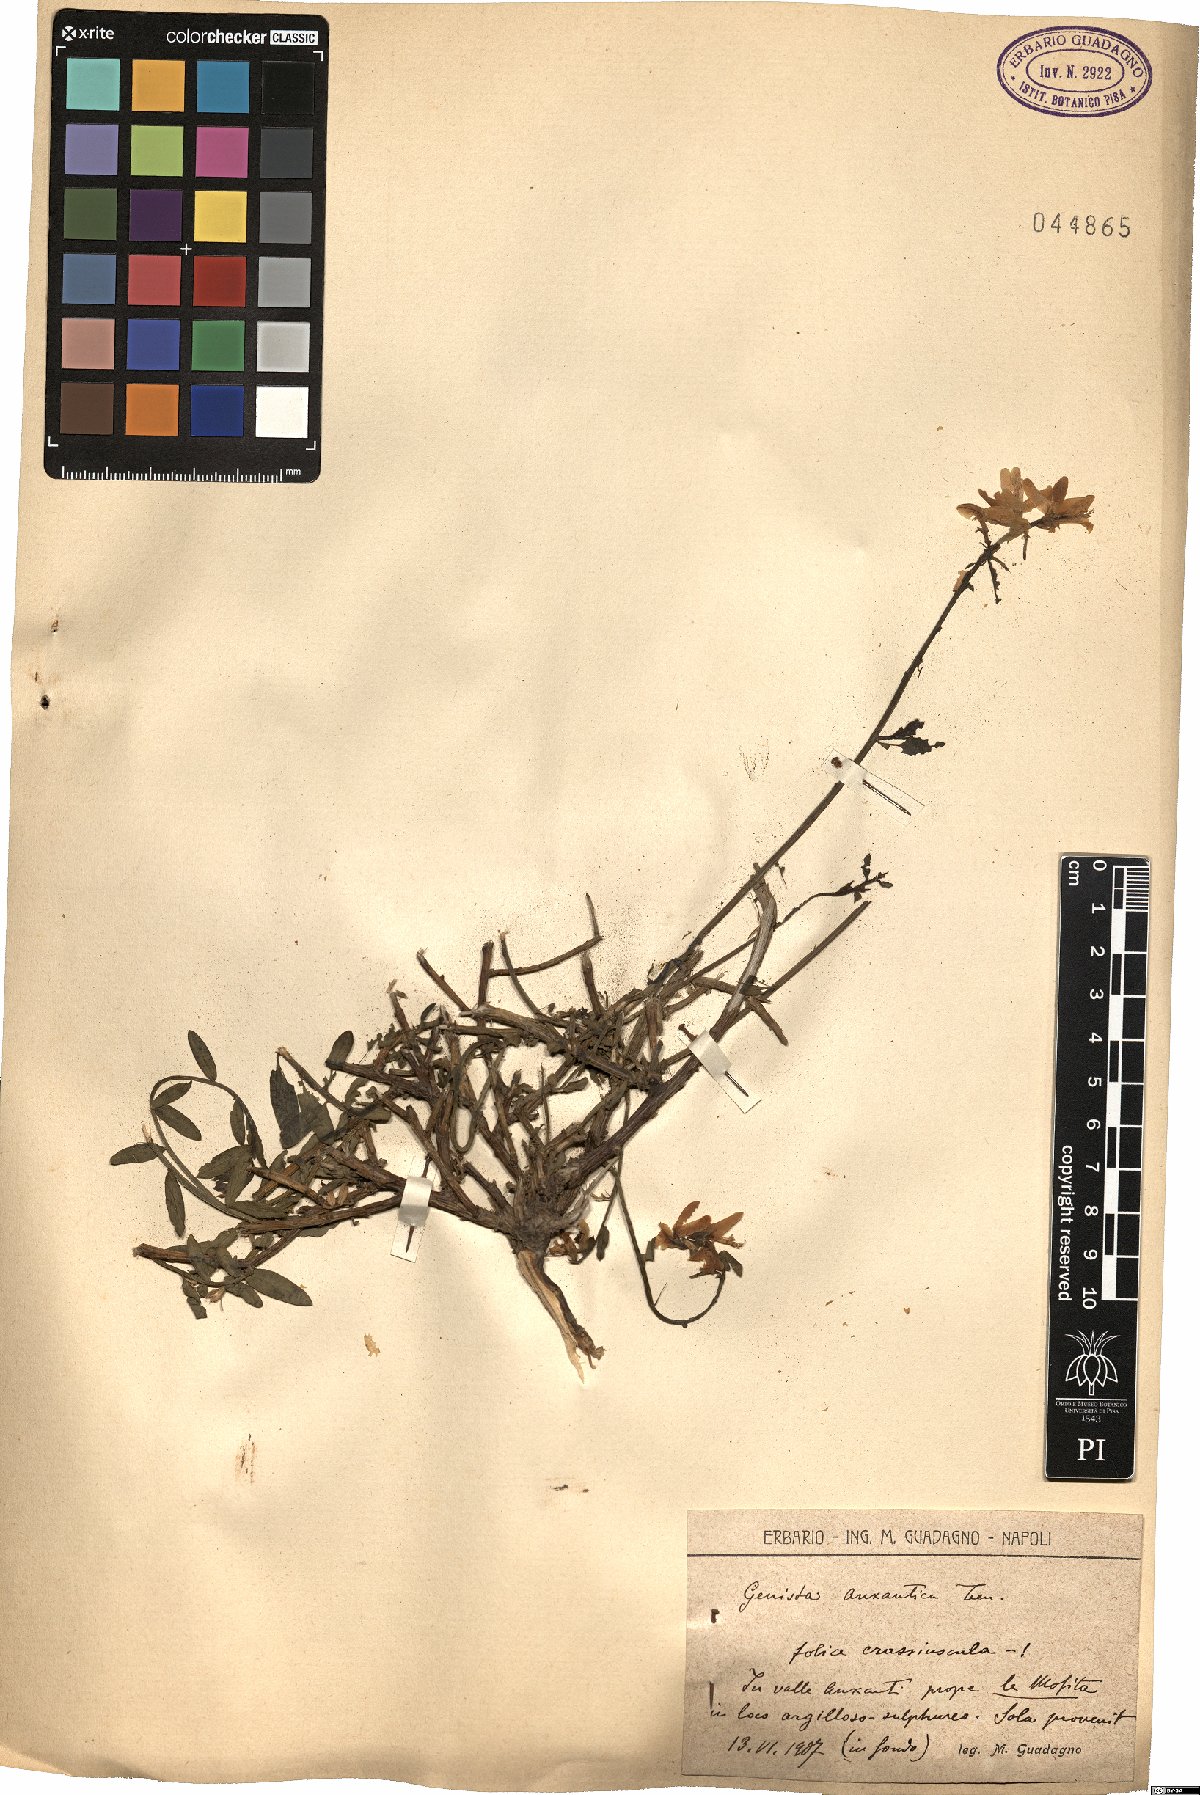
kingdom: Plantae
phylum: Tracheophyta
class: Magnoliopsida
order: Fabales
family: Fabaceae
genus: Genista
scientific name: Genista tinctoria
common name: Dyer's greenweed
